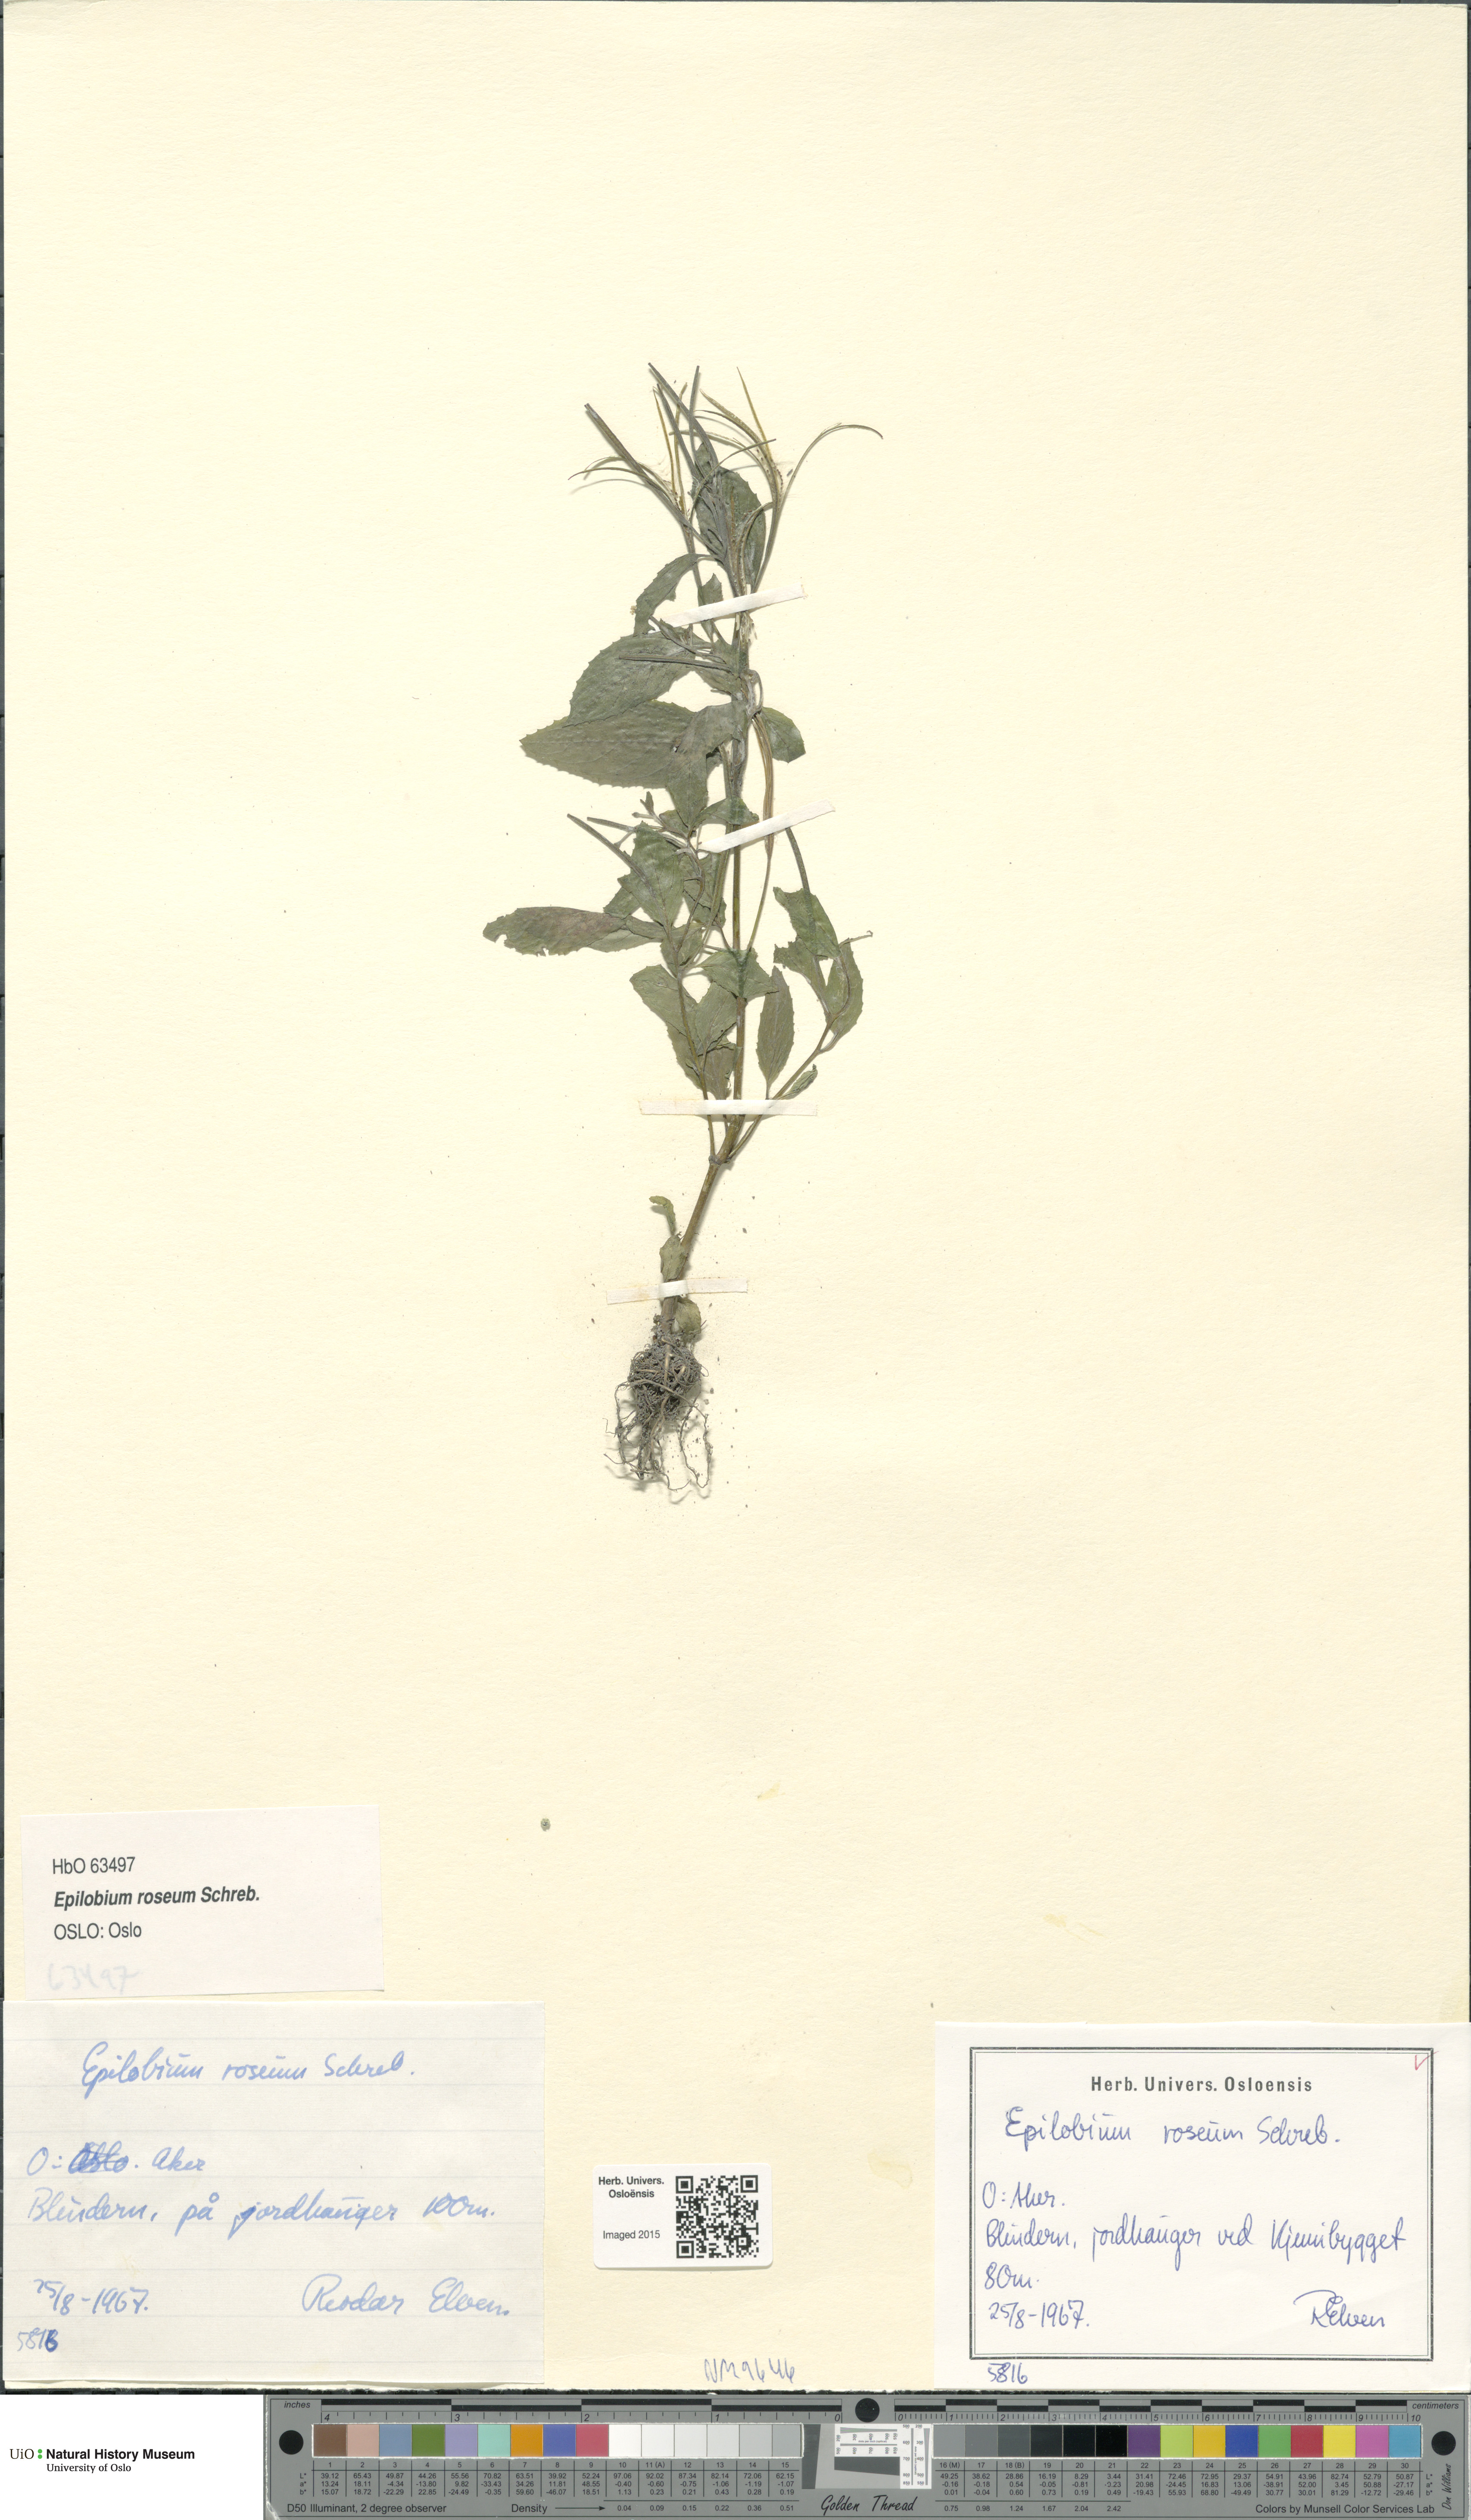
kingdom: Plantae
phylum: Tracheophyta
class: Magnoliopsida
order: Myrtales
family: Onagraceae
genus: Epilobium
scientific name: Epilobium roseum
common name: Pale willowherb
